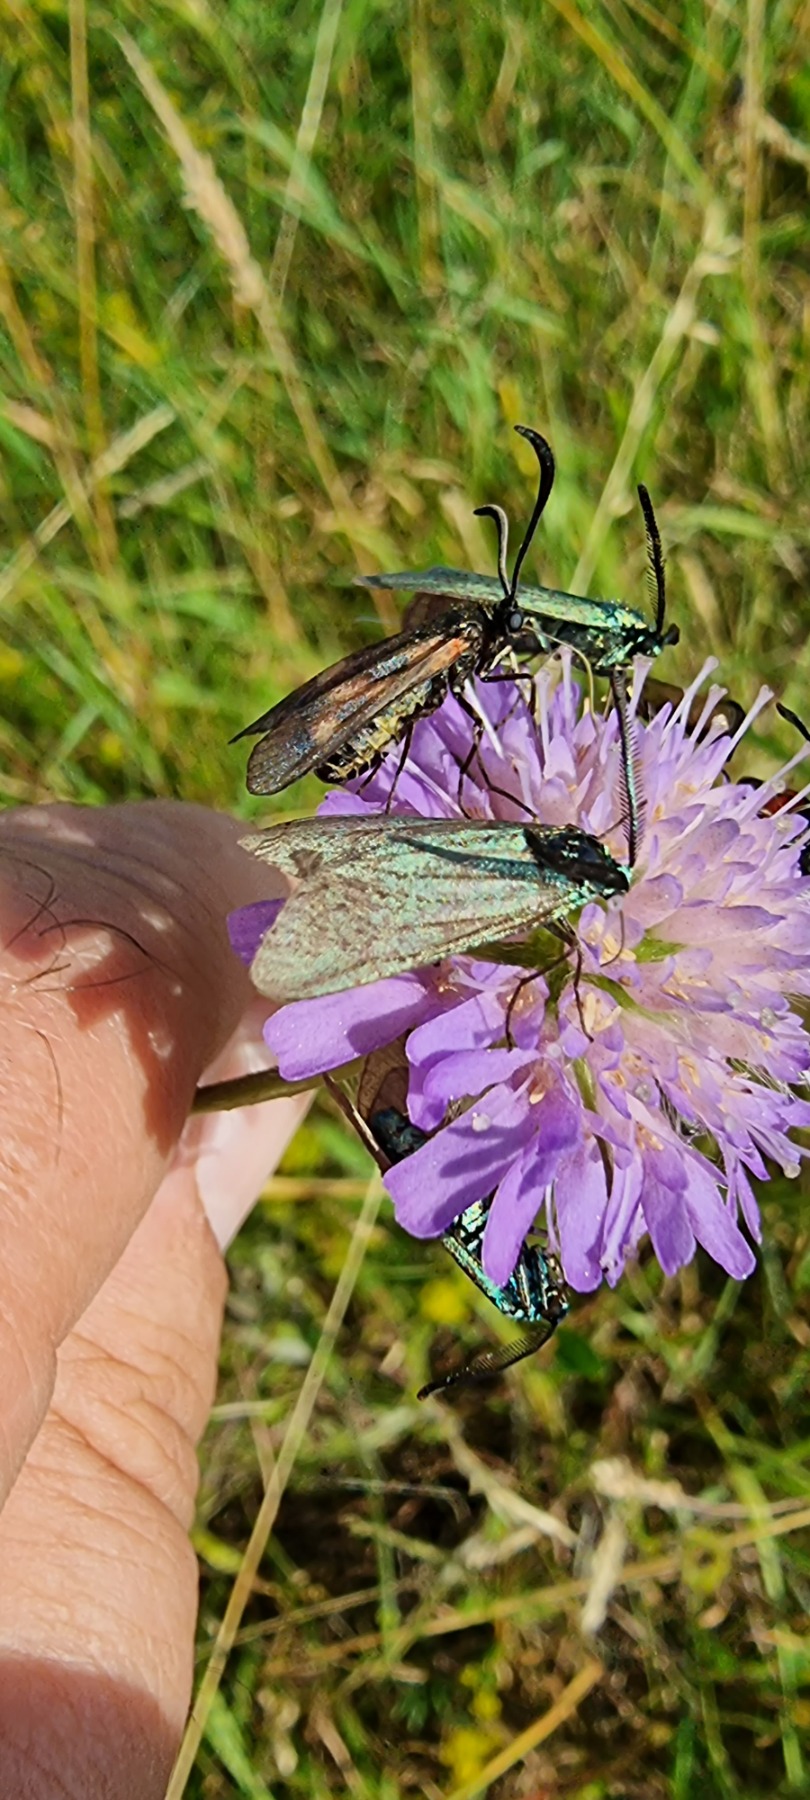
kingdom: Animalia
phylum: Arthropoda
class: Insecta
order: Lepidoptera
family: Zygaenidae
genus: Adscita
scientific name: Adscita statices
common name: Metalvinge
